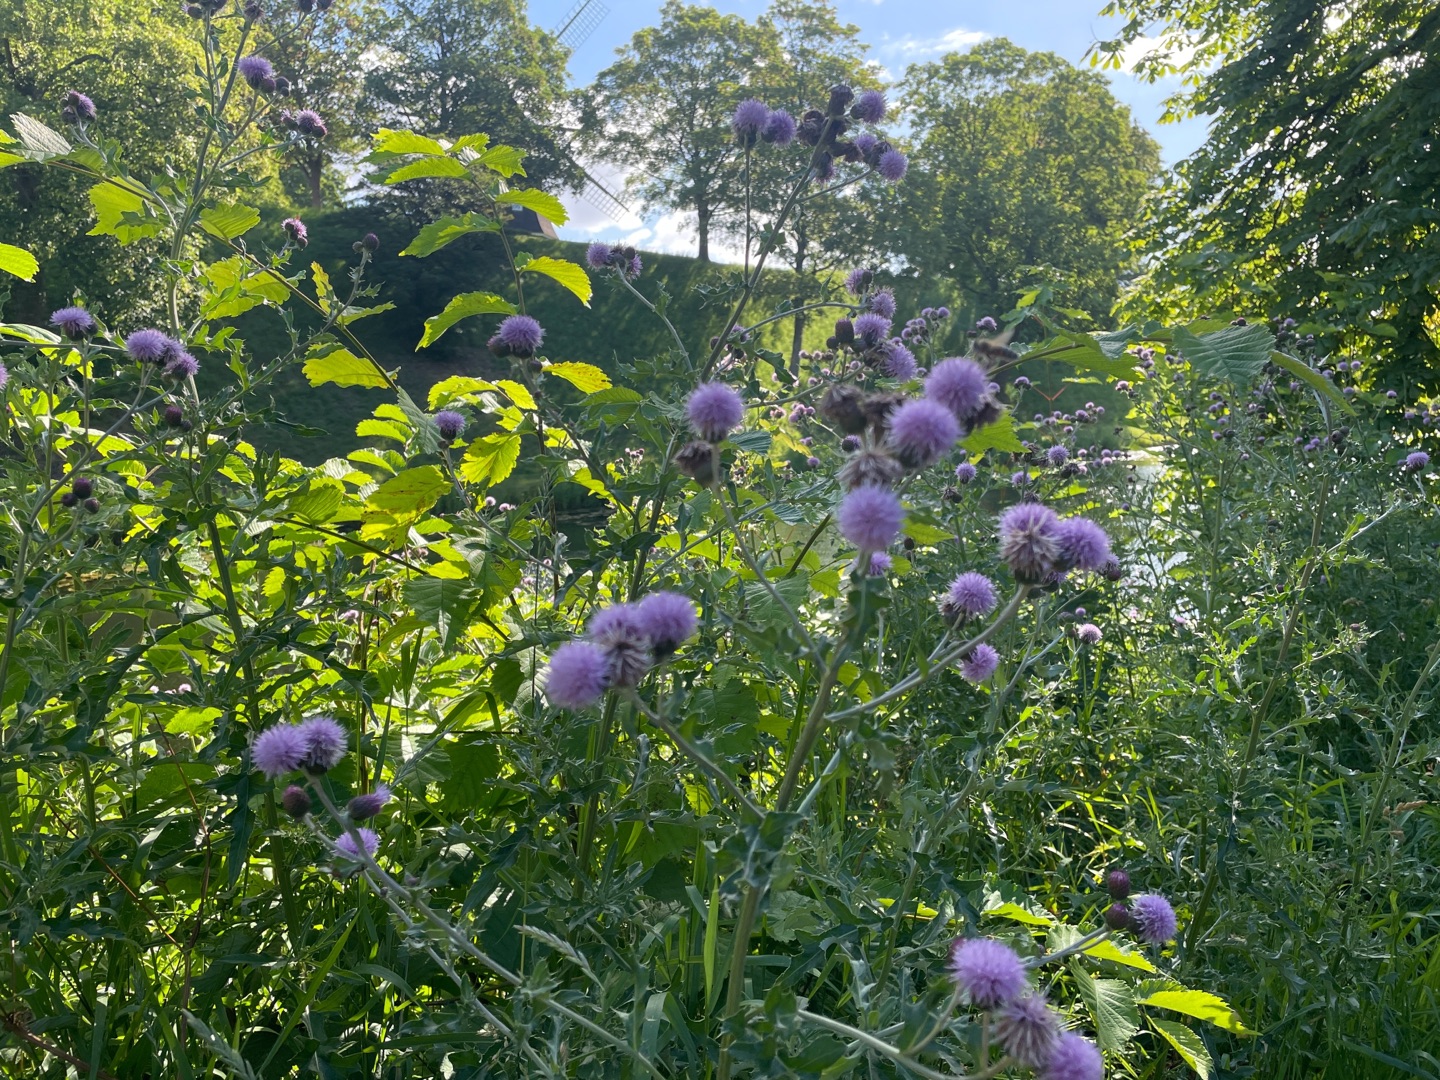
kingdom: Plantae
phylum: Tracheophyta
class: Magnoliopsida
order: Asterales
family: Asteraceae
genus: Cirsium
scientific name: Cirsium arvense
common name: Ager-tidsel
